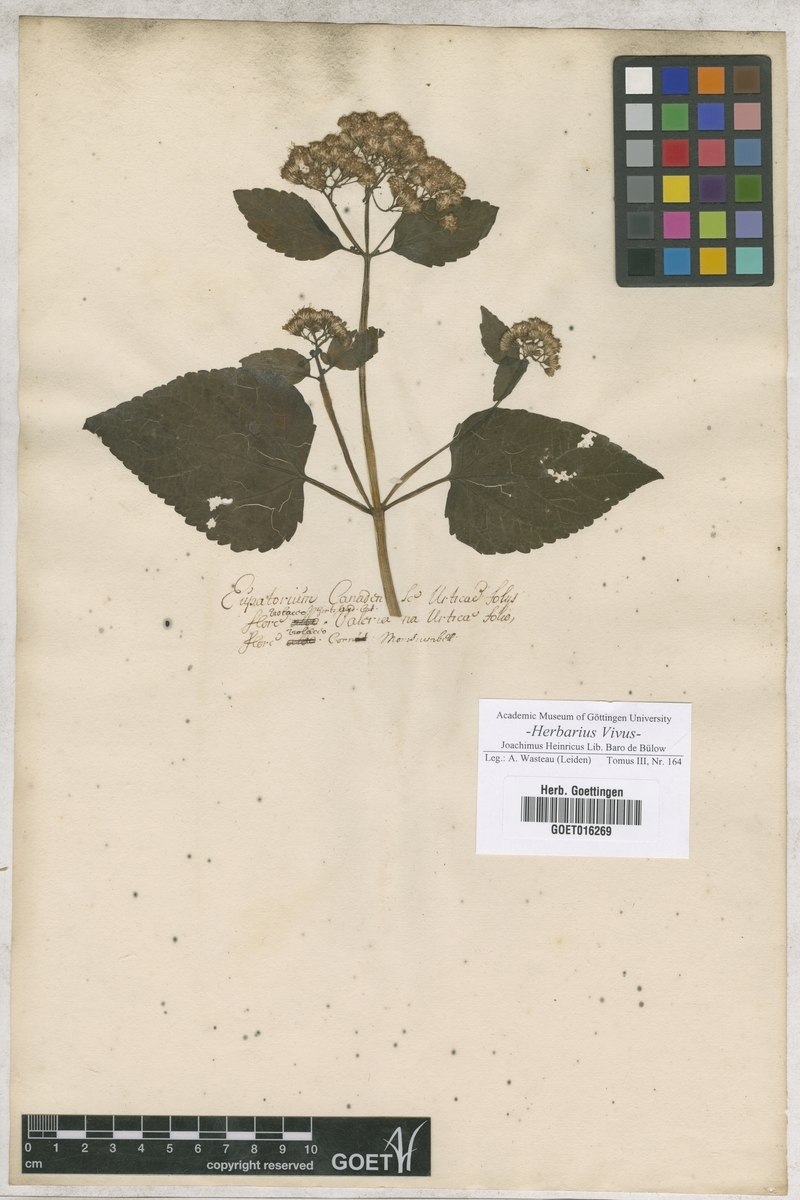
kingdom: Plantae
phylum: Tracheophyta
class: Magnoliopsida
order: Asterales
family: Asteraceae
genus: Eupatorium
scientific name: Eupatorium
